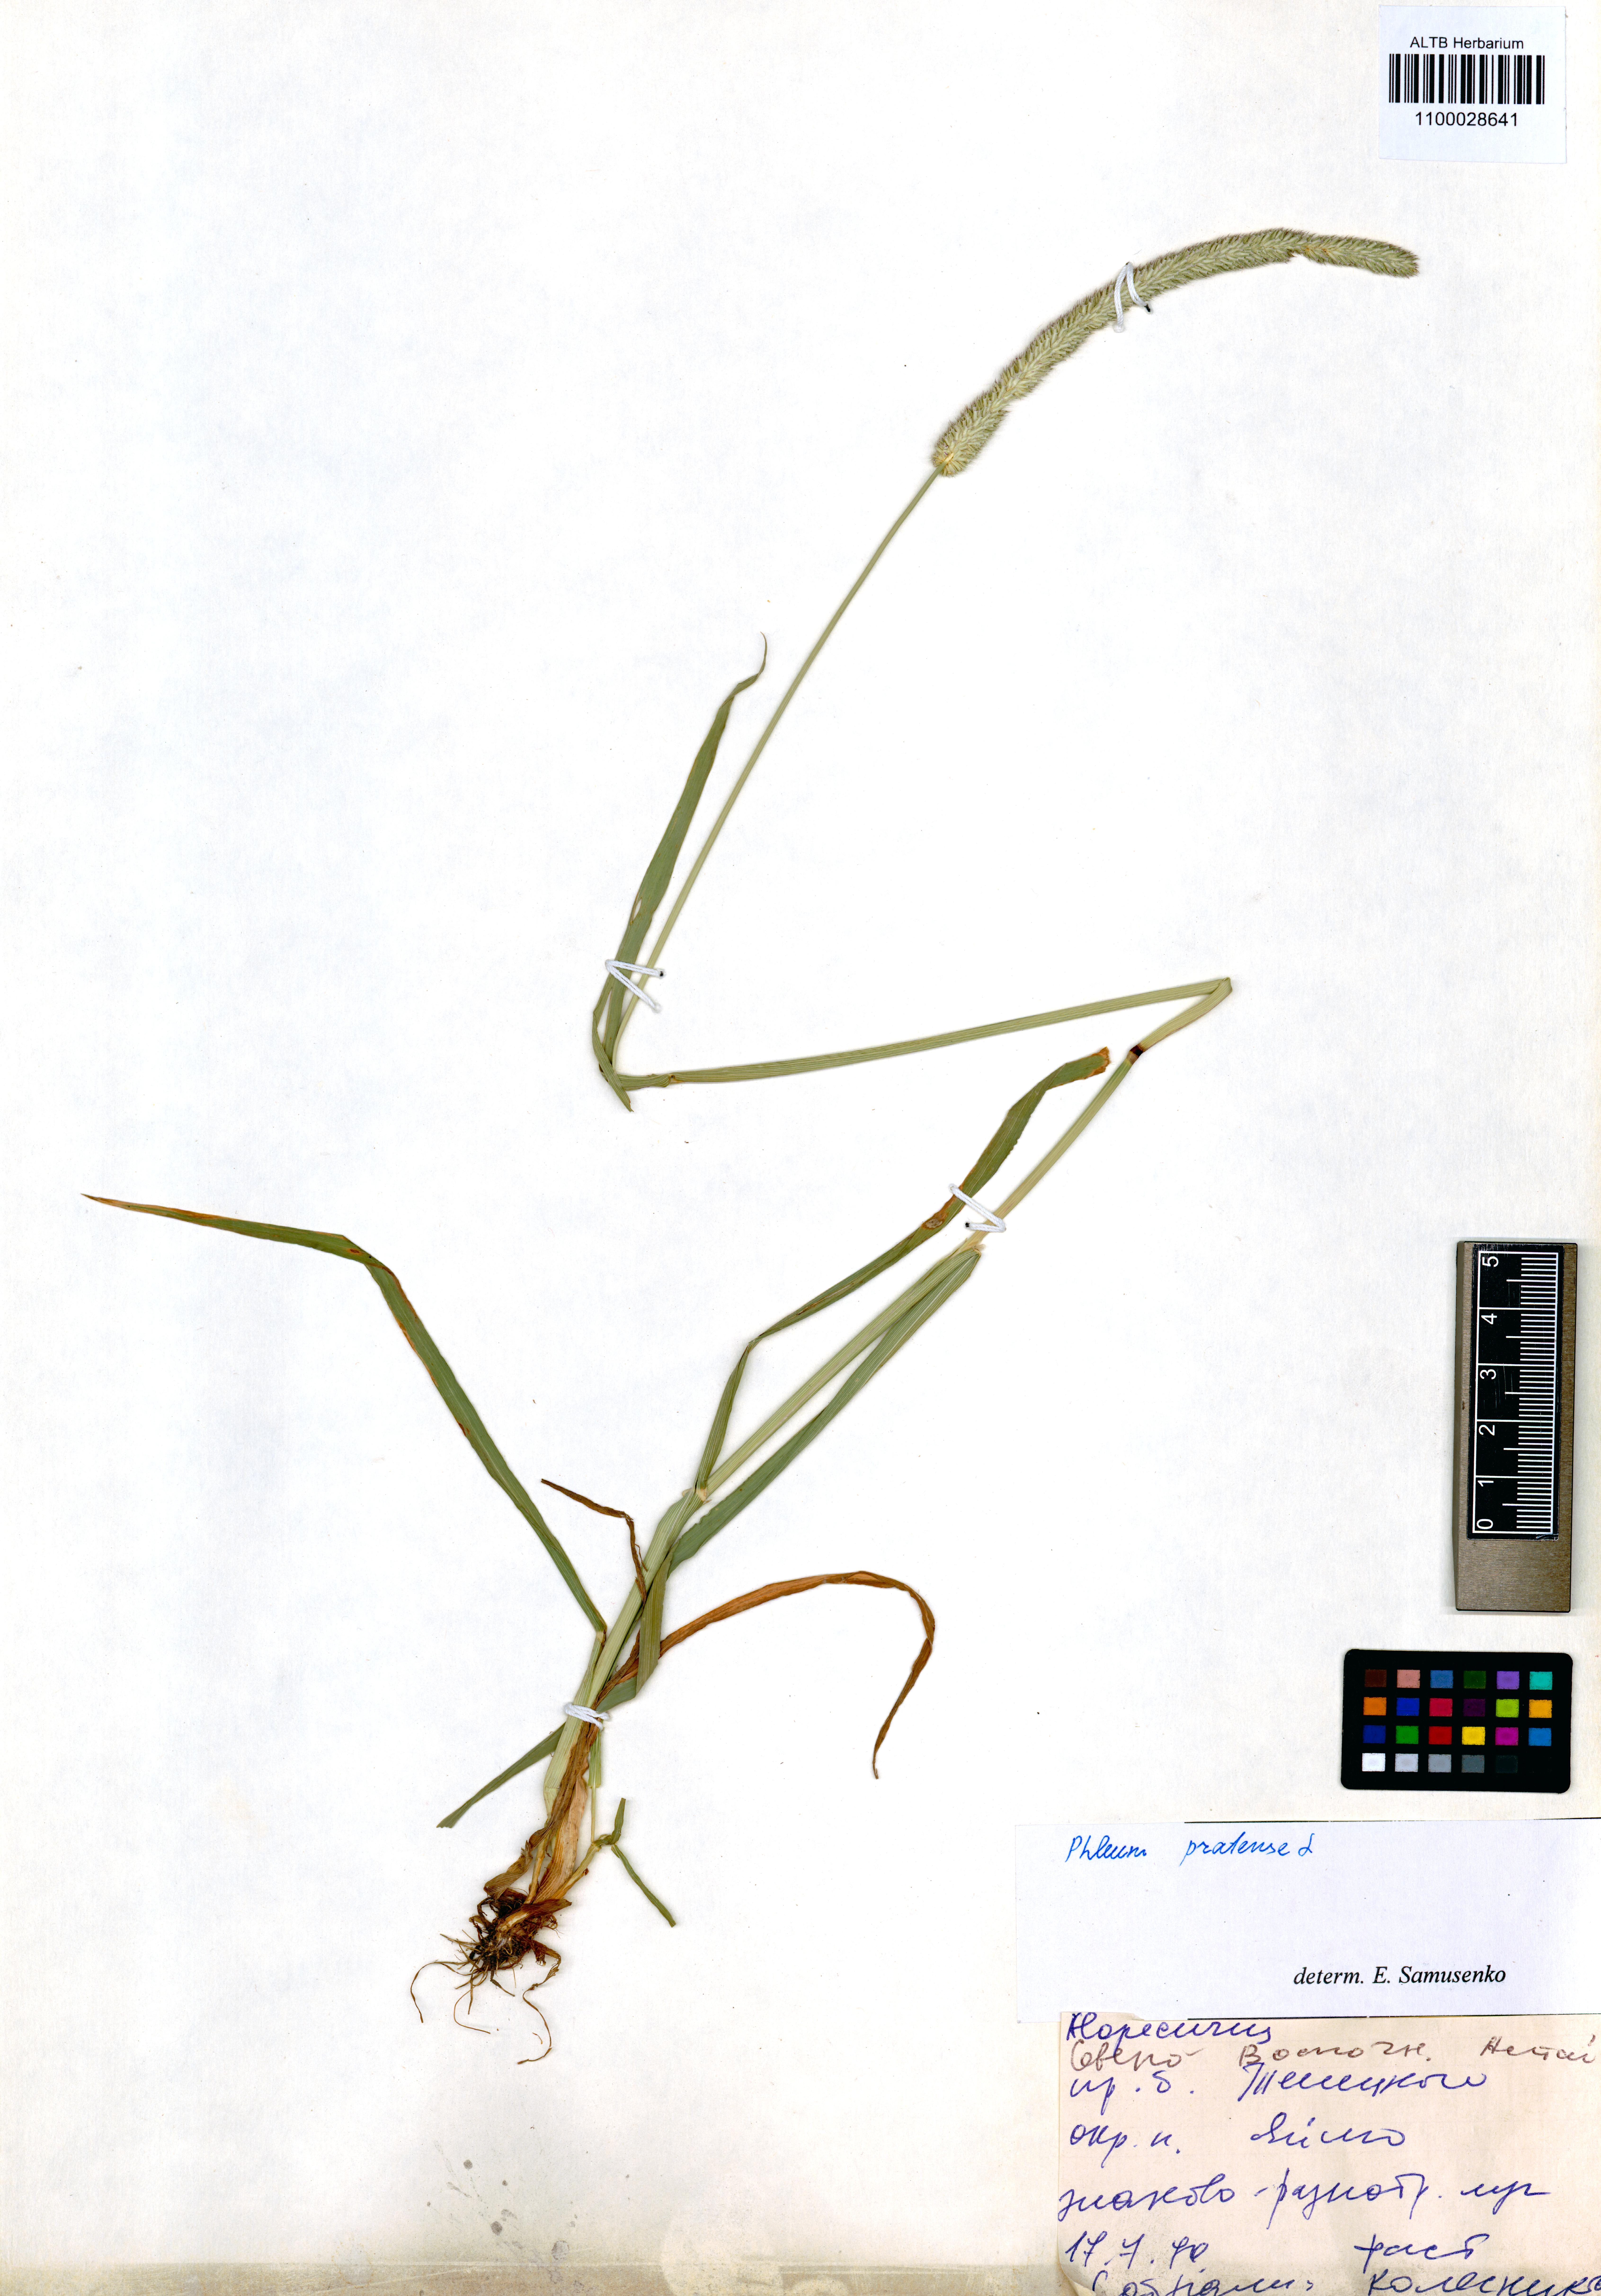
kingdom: Plantae
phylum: Tracheophyta
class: Liliopsida
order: Poales
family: Poaceae
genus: Phleum
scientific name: Phleum pratense
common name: Timothy grass
